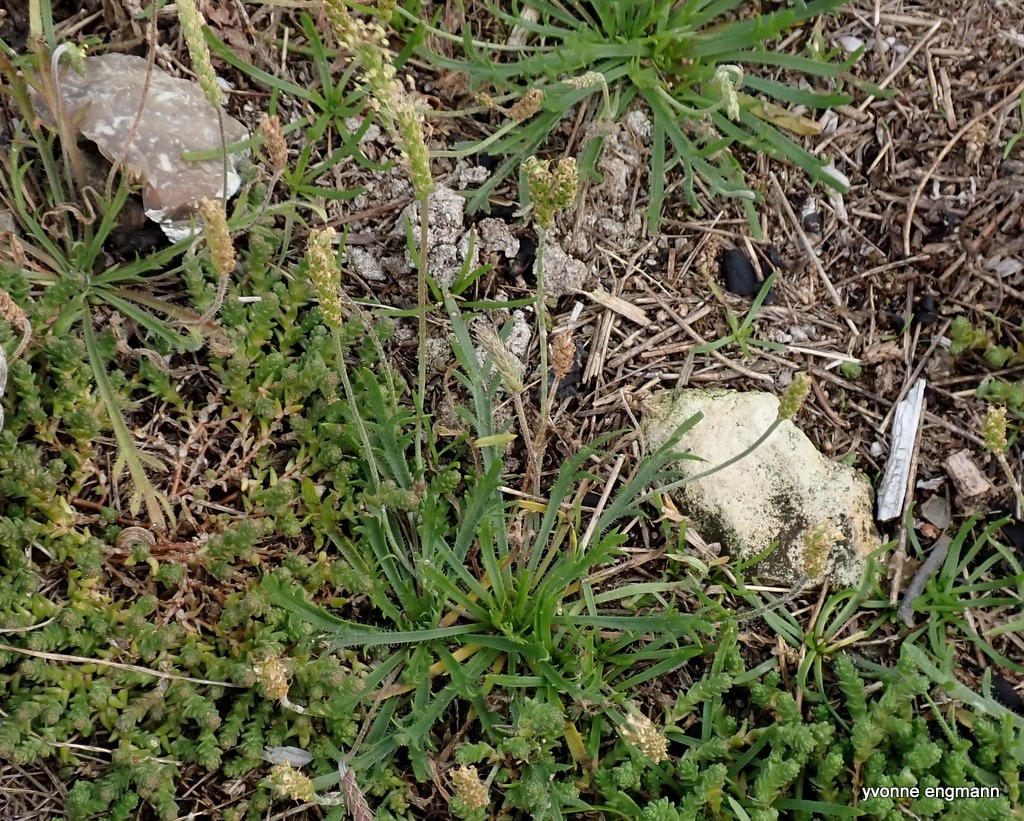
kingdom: Plantae
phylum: Tracheophyta
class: Magnoliopsida
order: Lamiales
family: Plantaginaceae
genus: Plantago
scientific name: Plantago coronopus
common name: Fliget vejbred
